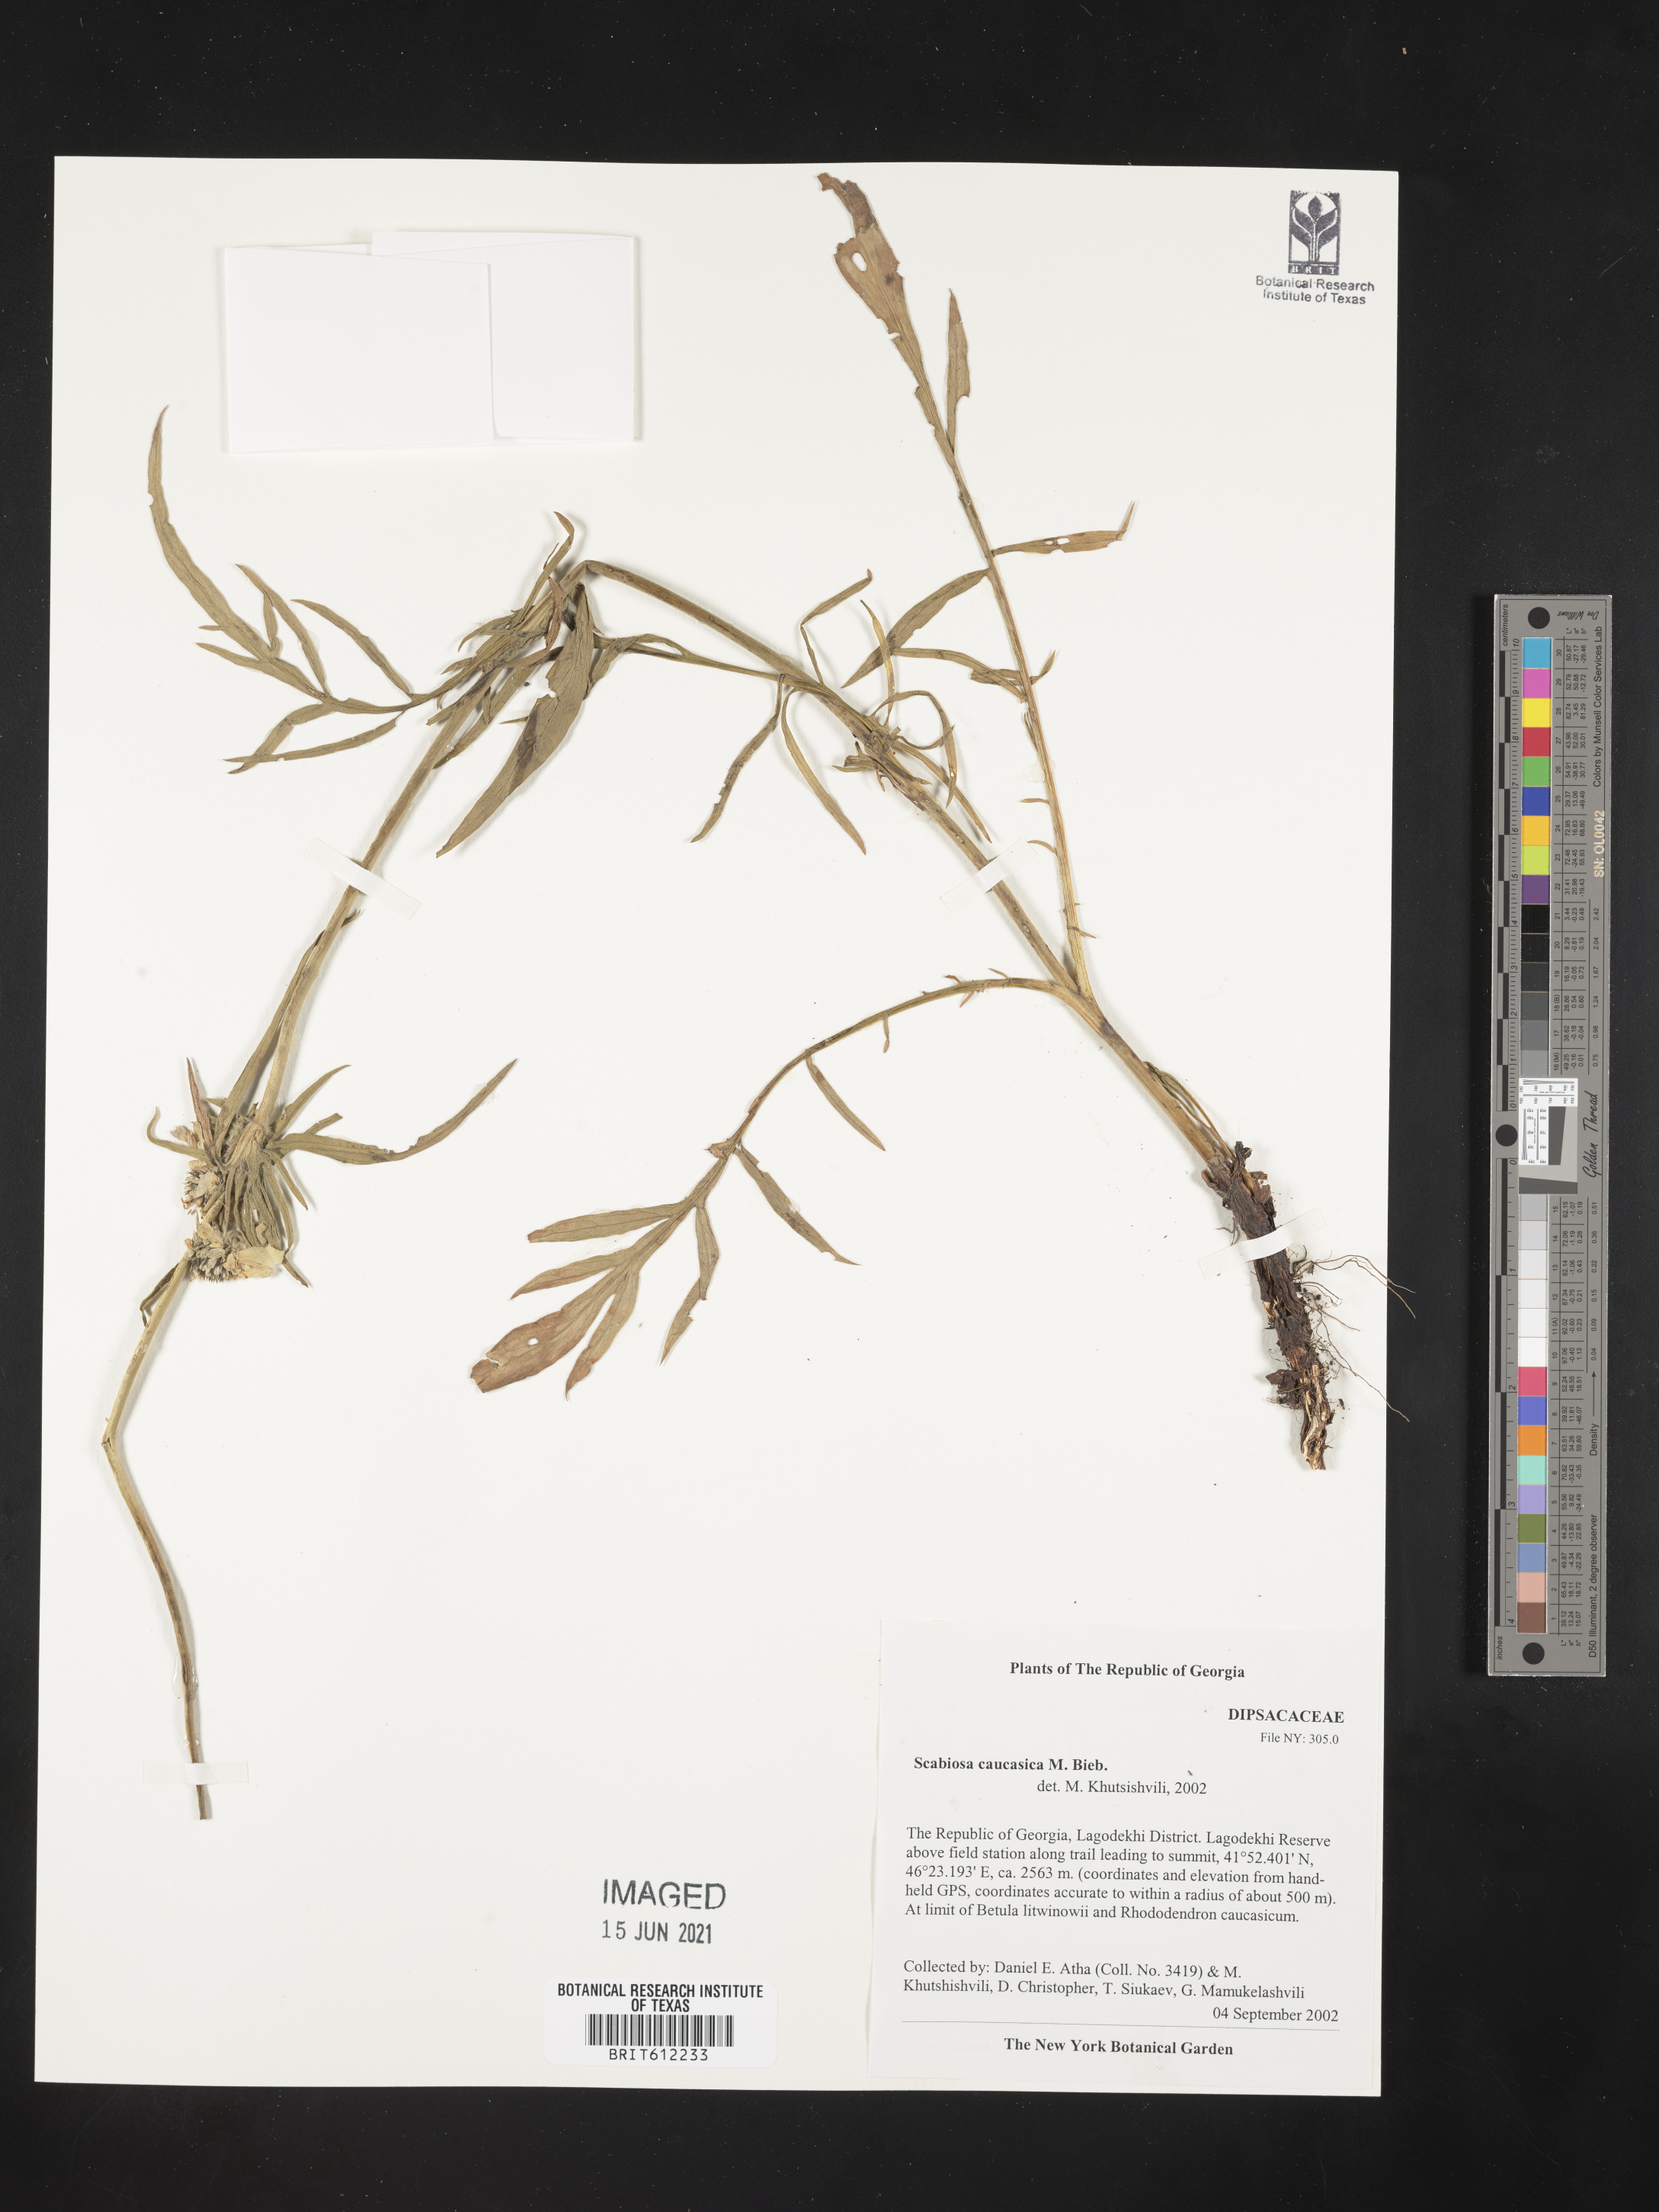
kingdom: Plantae
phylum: Tracheophyta
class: Magnoliopsida
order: Dipsacales
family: Caprifoliaceae
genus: Lomelosia
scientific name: Lomelosia caucasica
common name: Pincushion-flower
